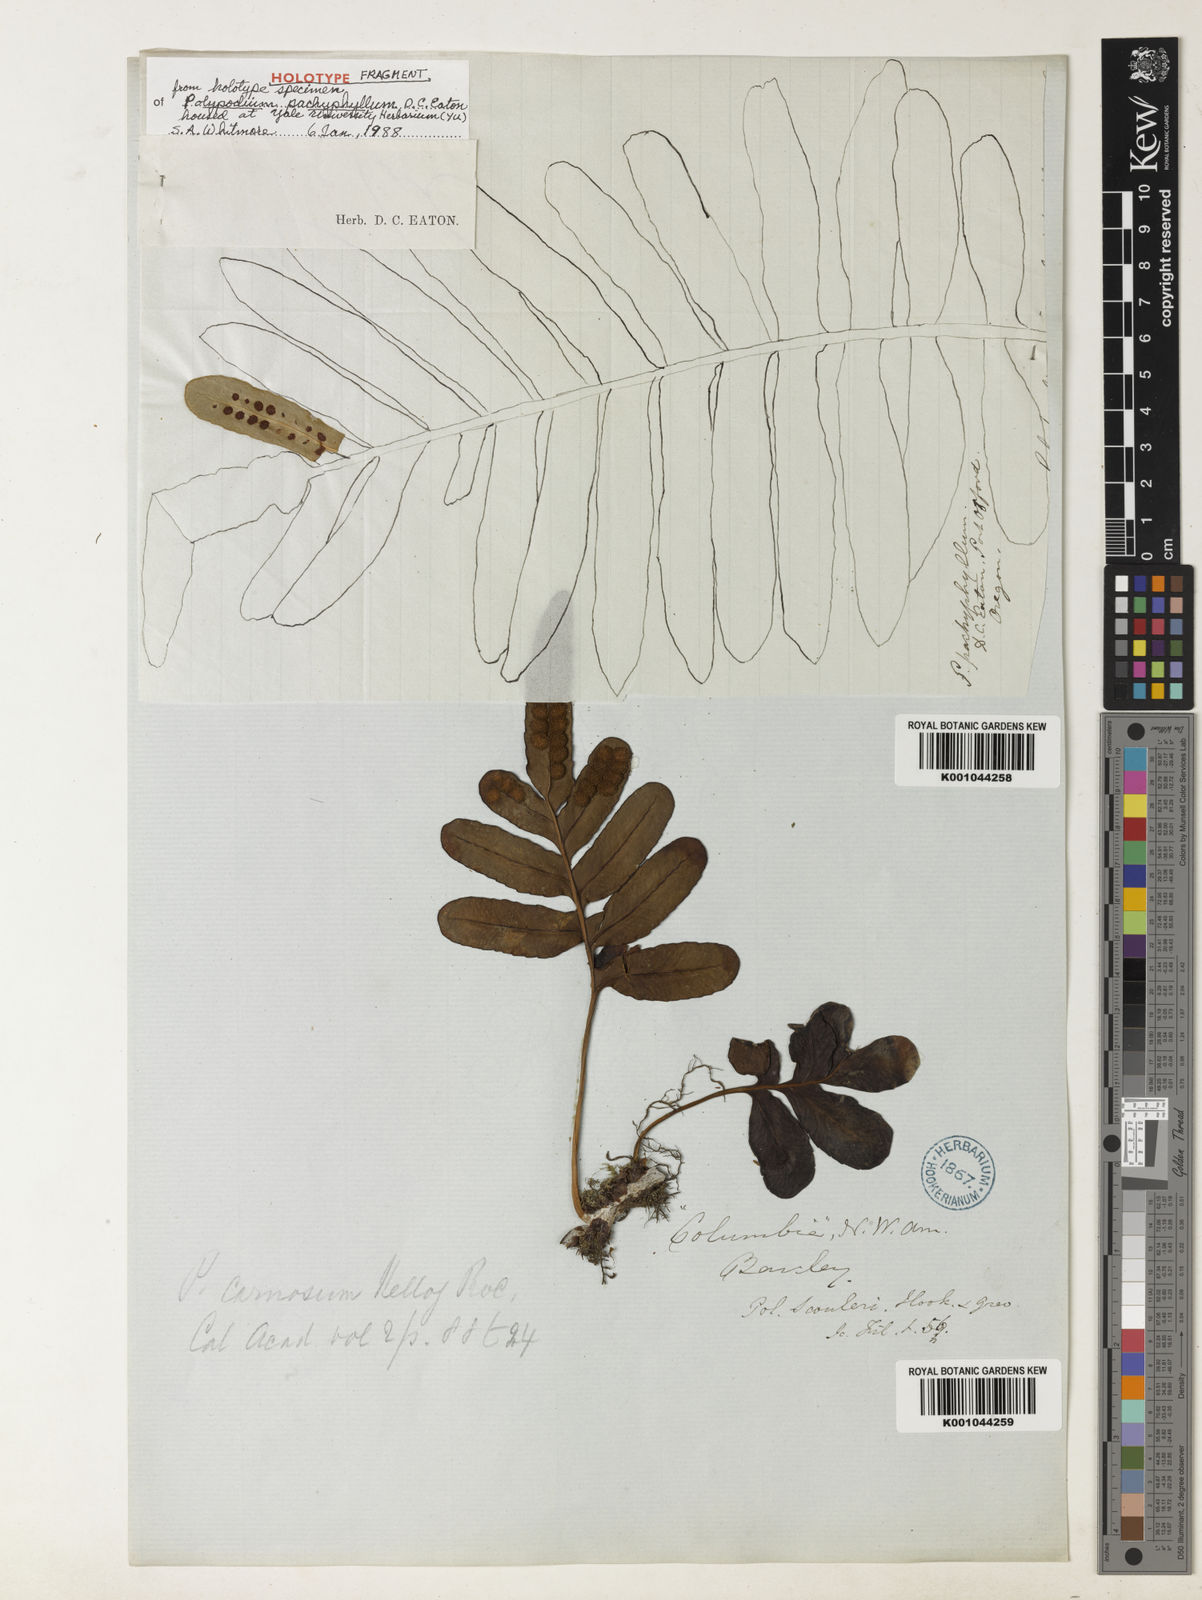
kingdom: Plantae
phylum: Tracheophyta
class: Polypodiopsida
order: Polypodiales
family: Polypodiaceae
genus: Polypodium
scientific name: Polypodium scouleri
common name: Scouler's polypody
